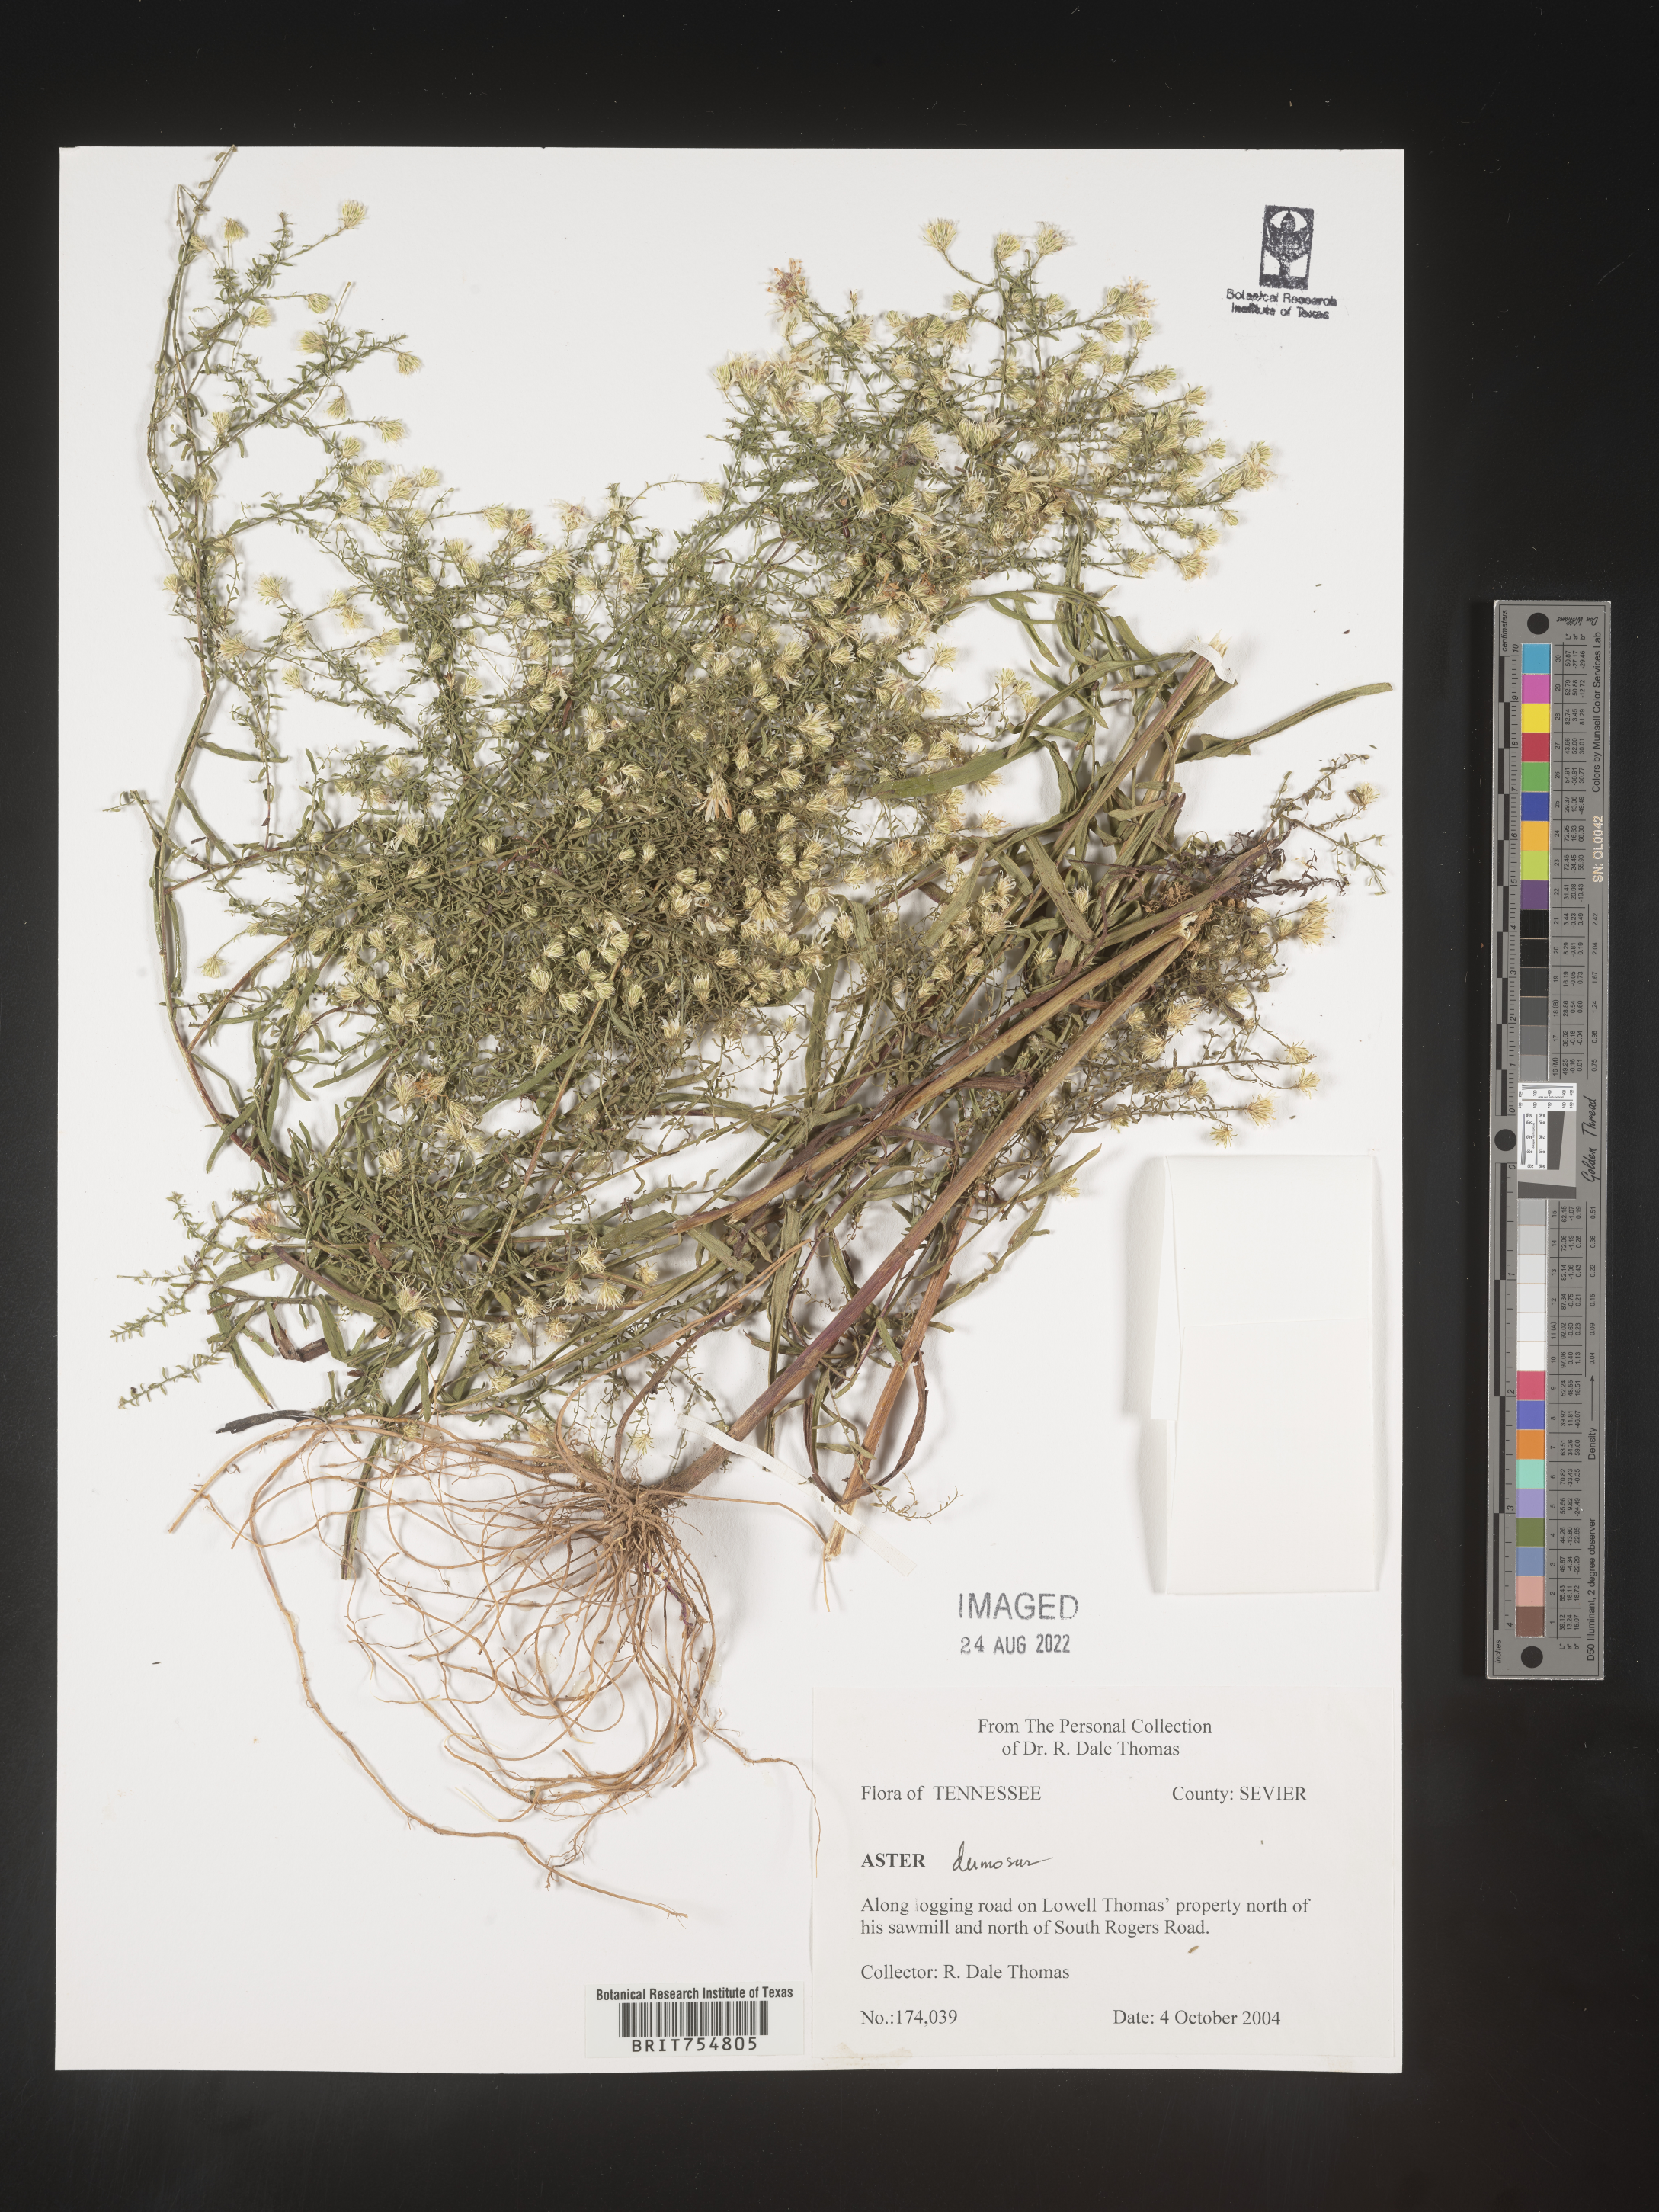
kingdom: Plantae
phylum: Tracheophyta
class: Magnoliopsida
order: Asterales
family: Asteraceae
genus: Symphyotrichum
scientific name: Symphyotrichum
